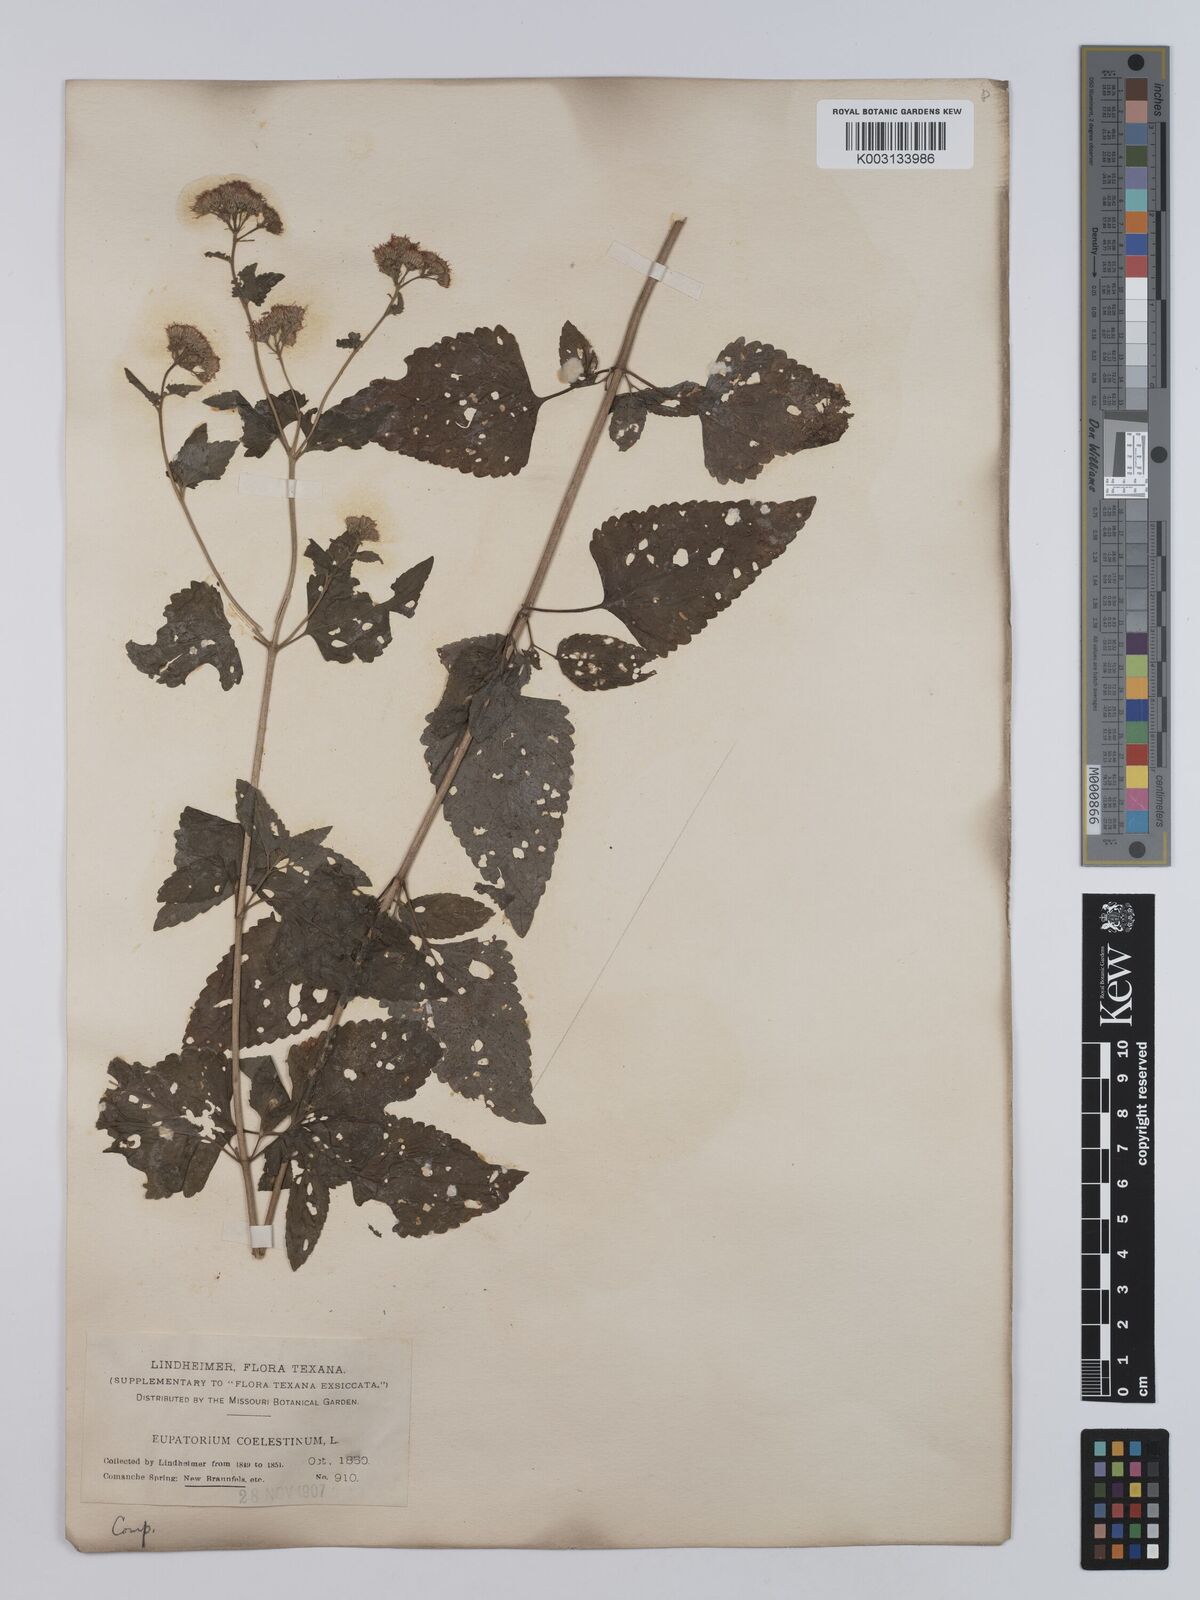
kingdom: Plantae
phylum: Tracheophyta
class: Magnoliopsida
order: Asterales
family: Asteraceae
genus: Conoclinium
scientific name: Conoclinium coelestinum
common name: Blue mistflower
